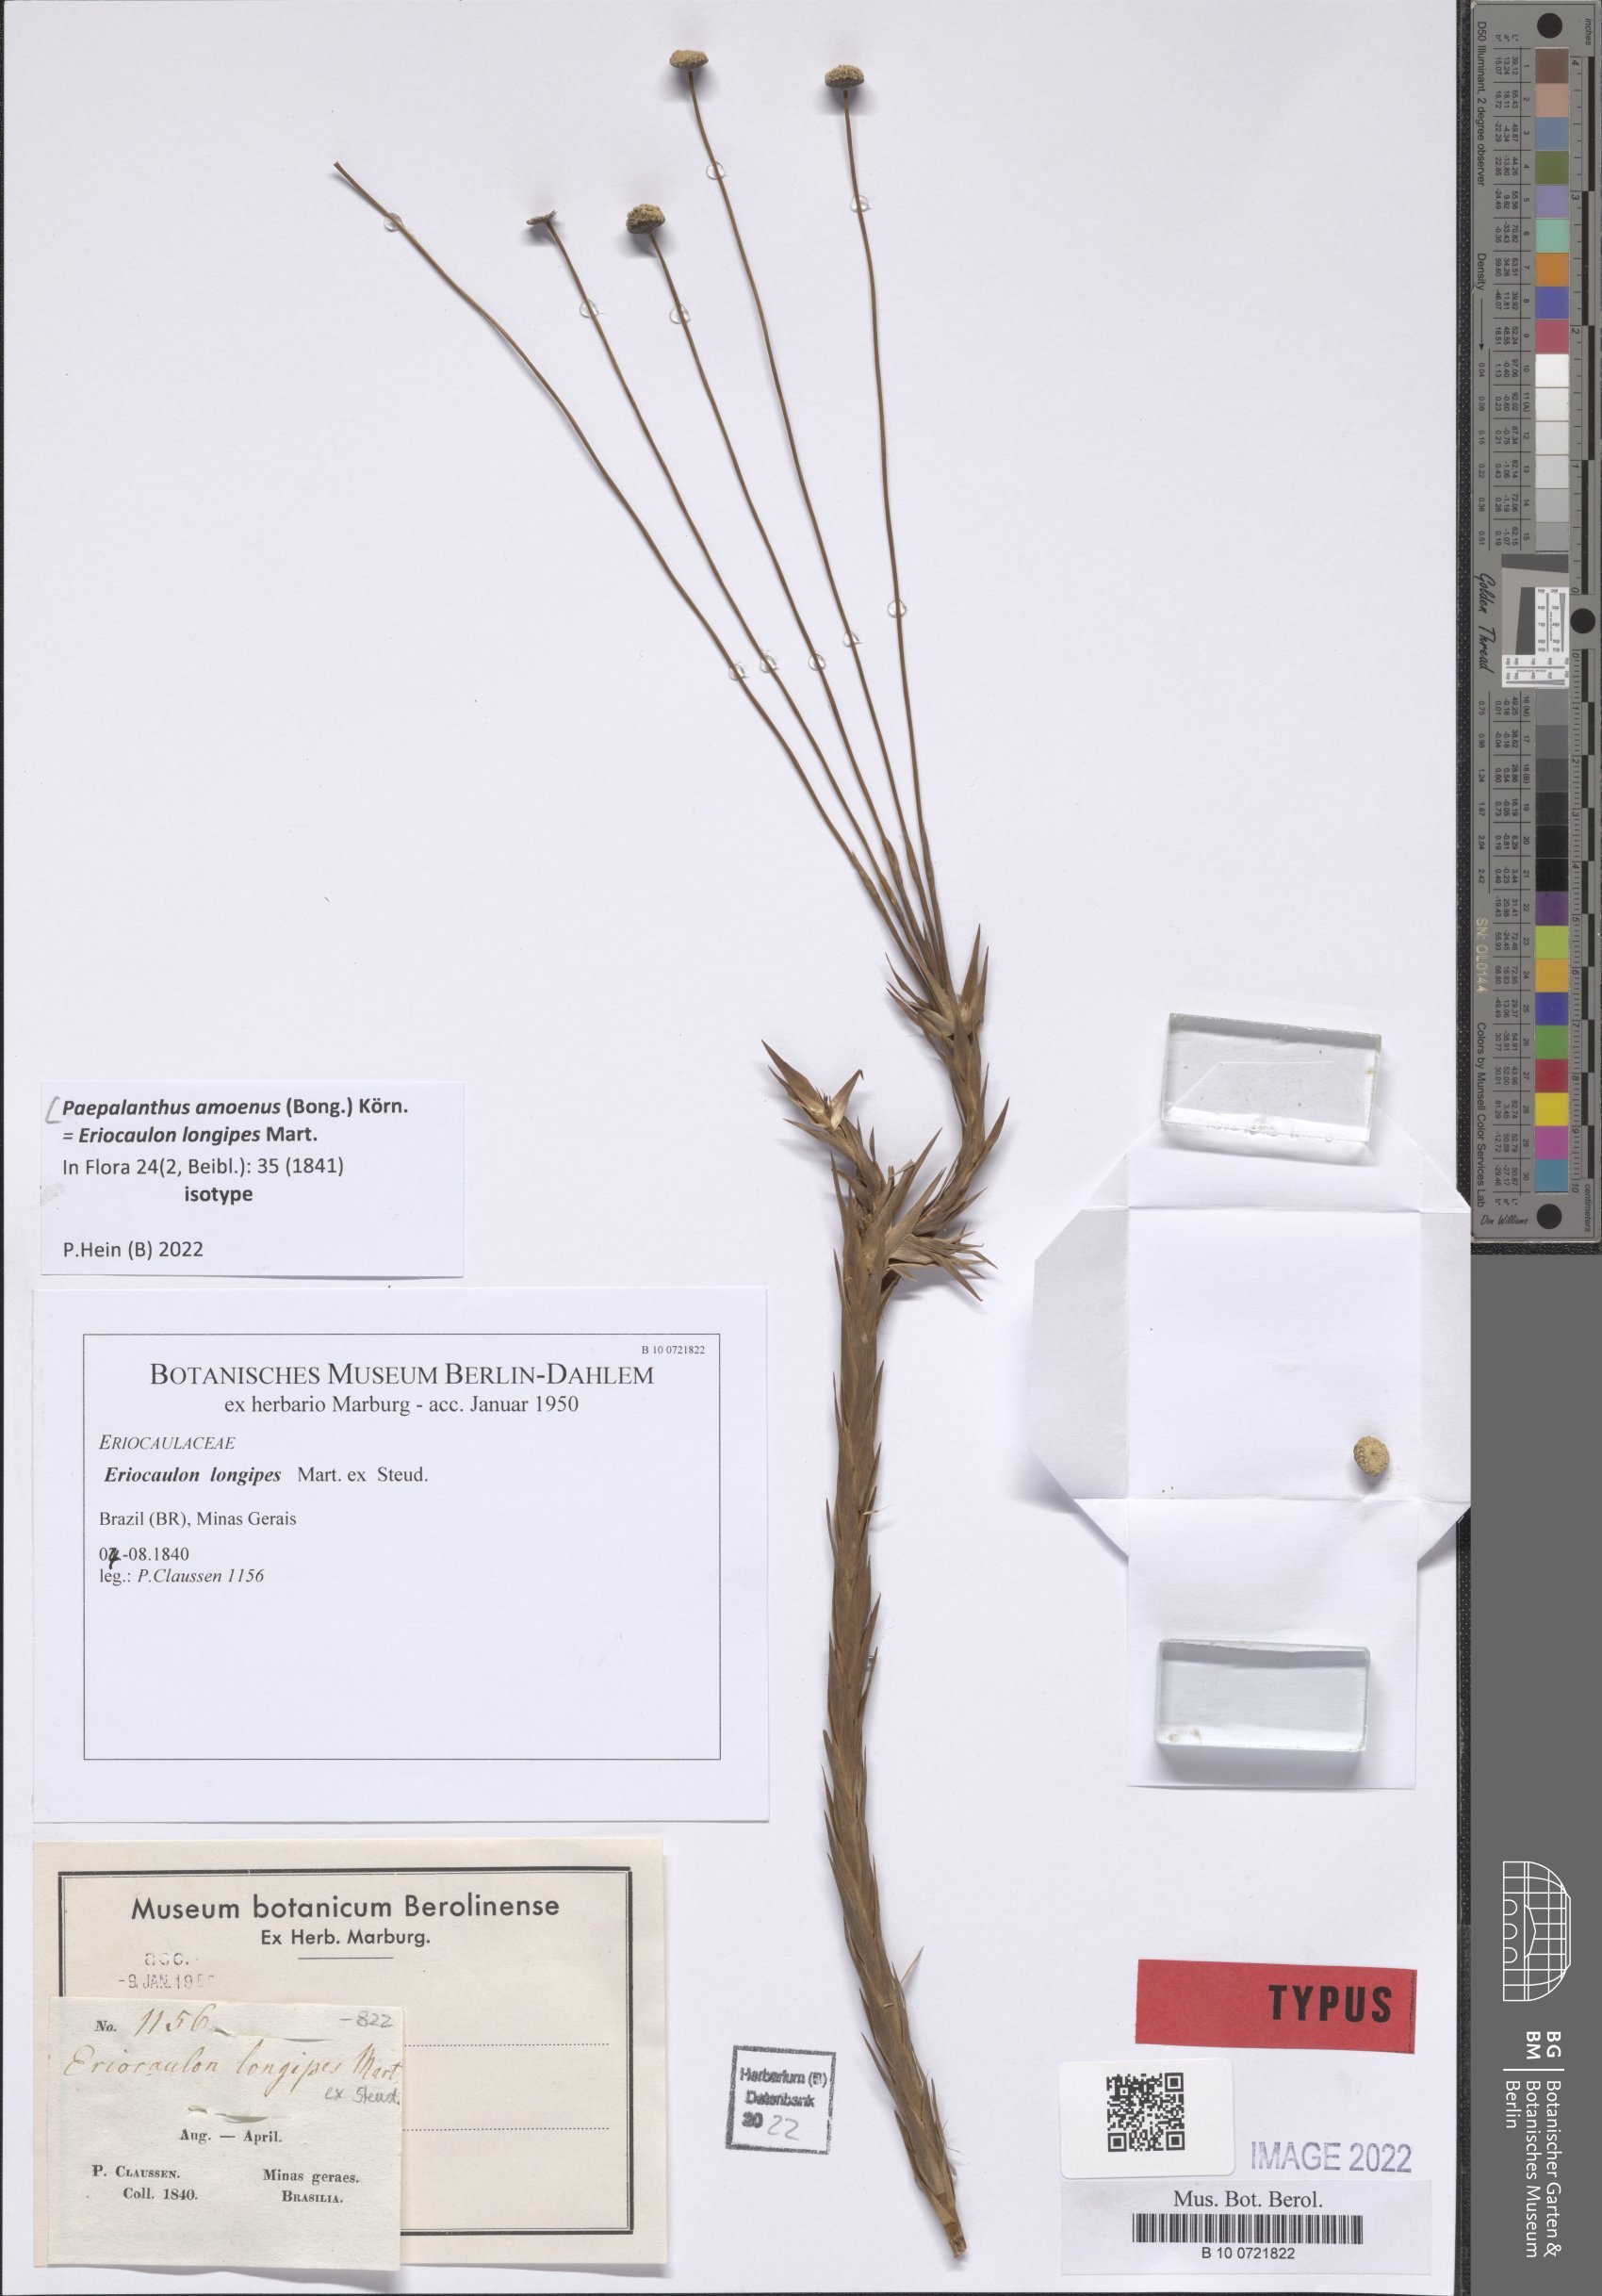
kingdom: Plantae
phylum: Tracheophyta
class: Liliopsida
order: Poales
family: Eriocaulaceae
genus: Paepalanthus
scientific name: Paepalanthus amoenus
